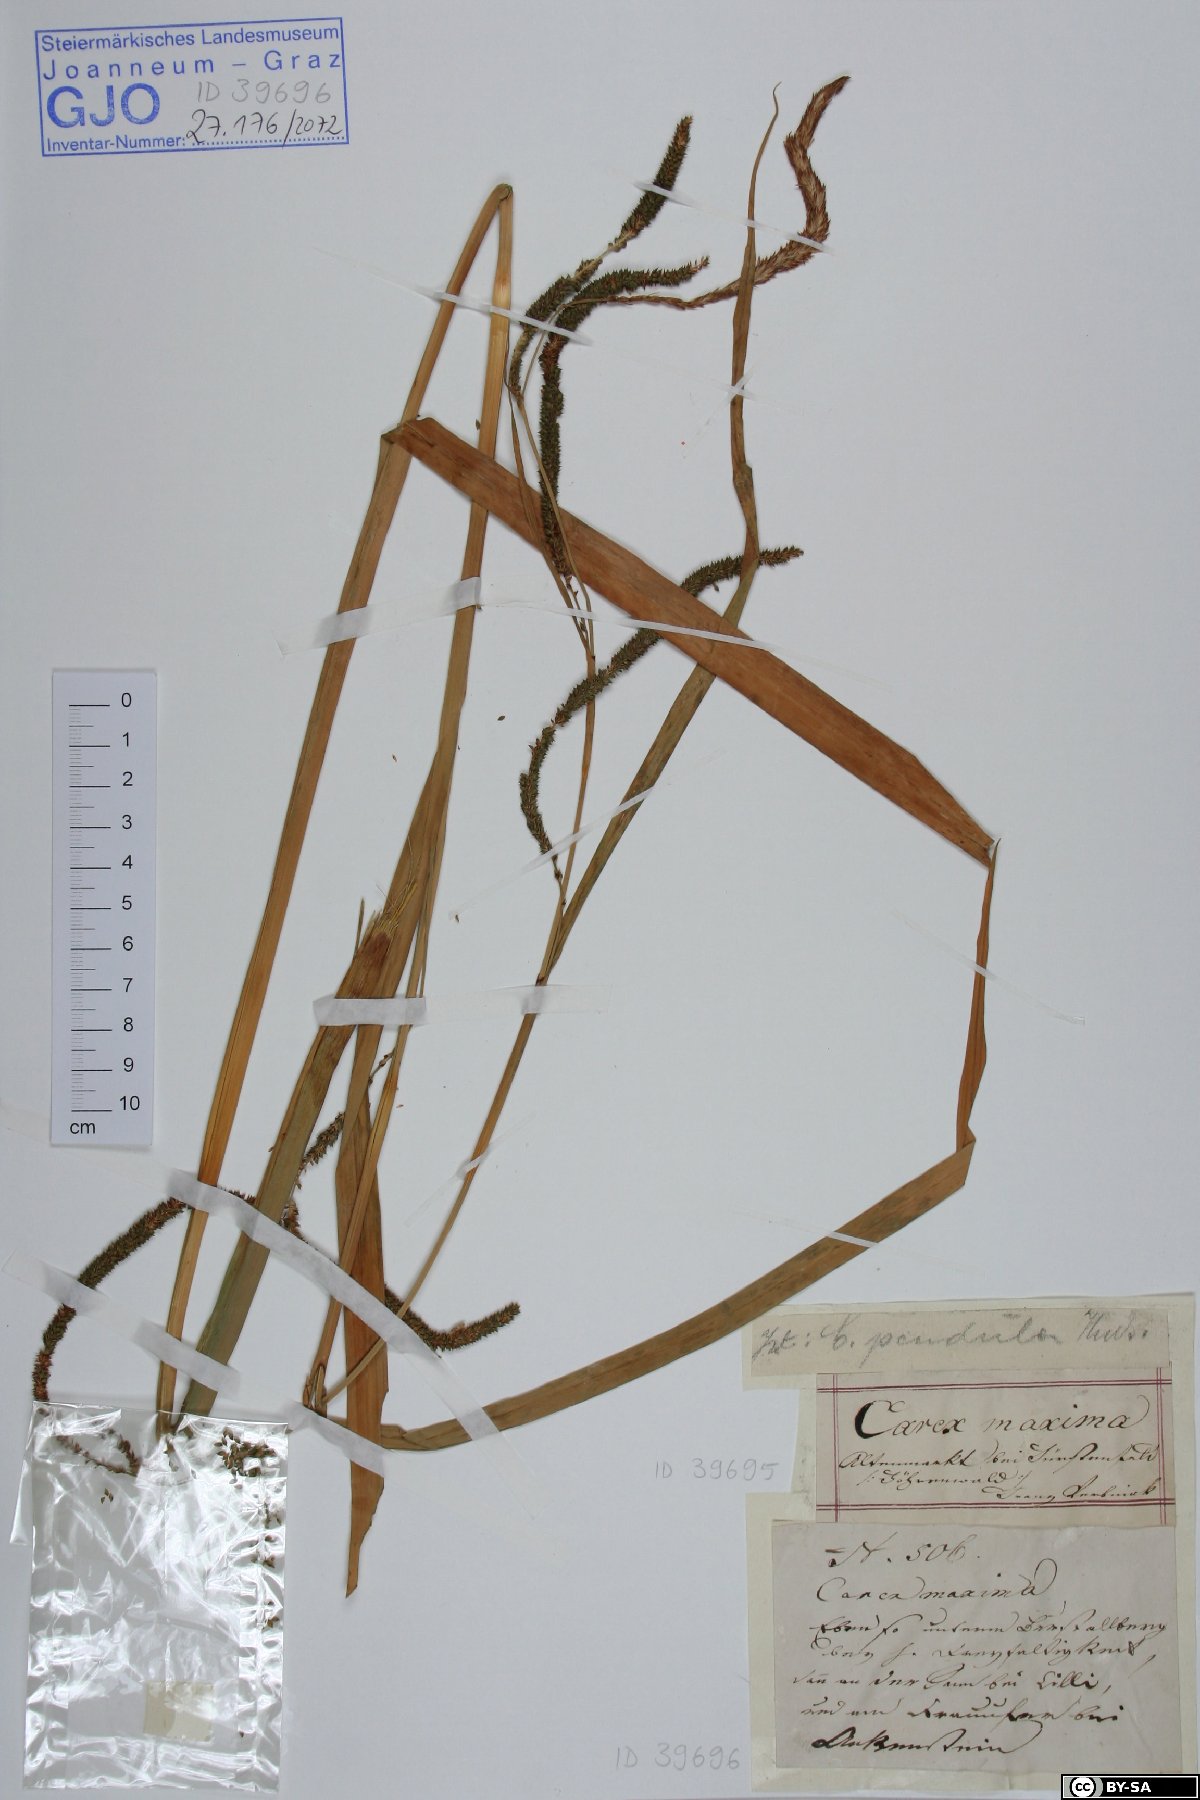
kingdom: Plantae
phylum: Tracheophyta
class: Liliopsida
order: Poales
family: Cyperaceae
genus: Carex
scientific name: Carex pendula
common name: Pendulous sedge
